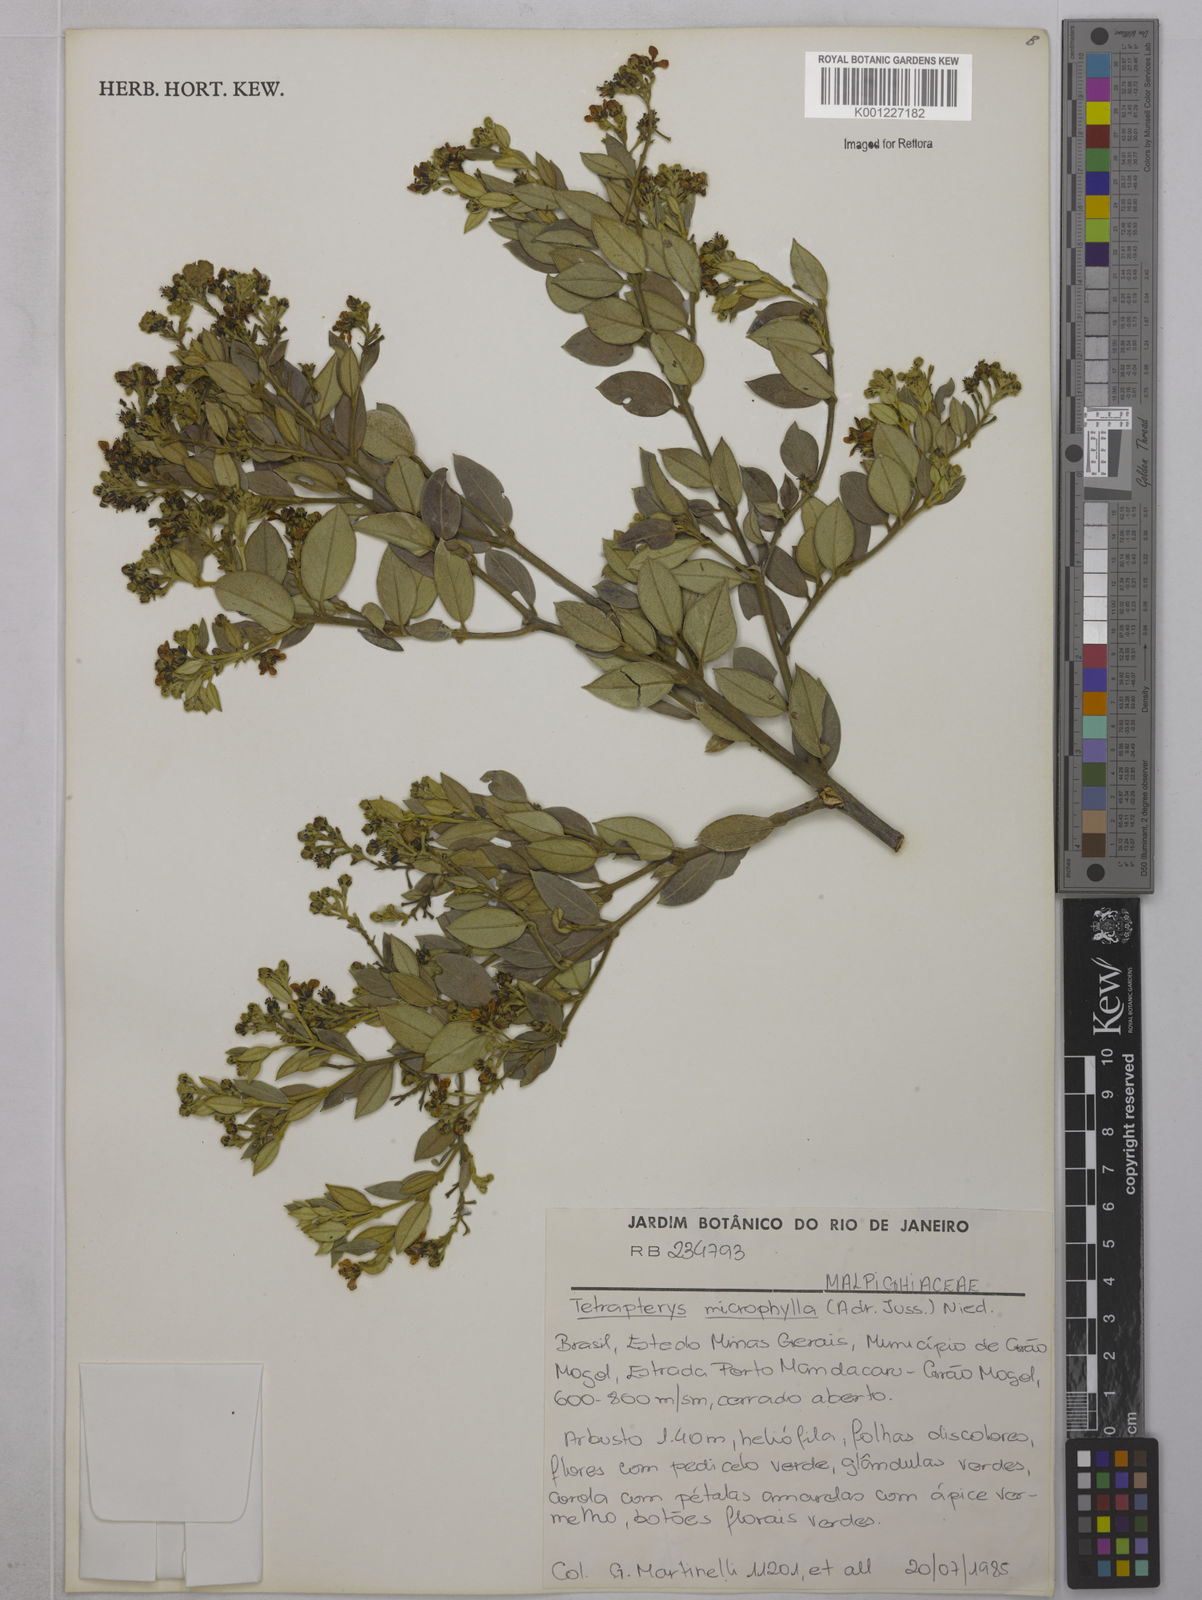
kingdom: Plantae
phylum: Tracheophyta
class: Magnoliopsida
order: Malpighiales
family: Malpighiaceae
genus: Glicophyllum
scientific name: Glicophyllum microphyllum
